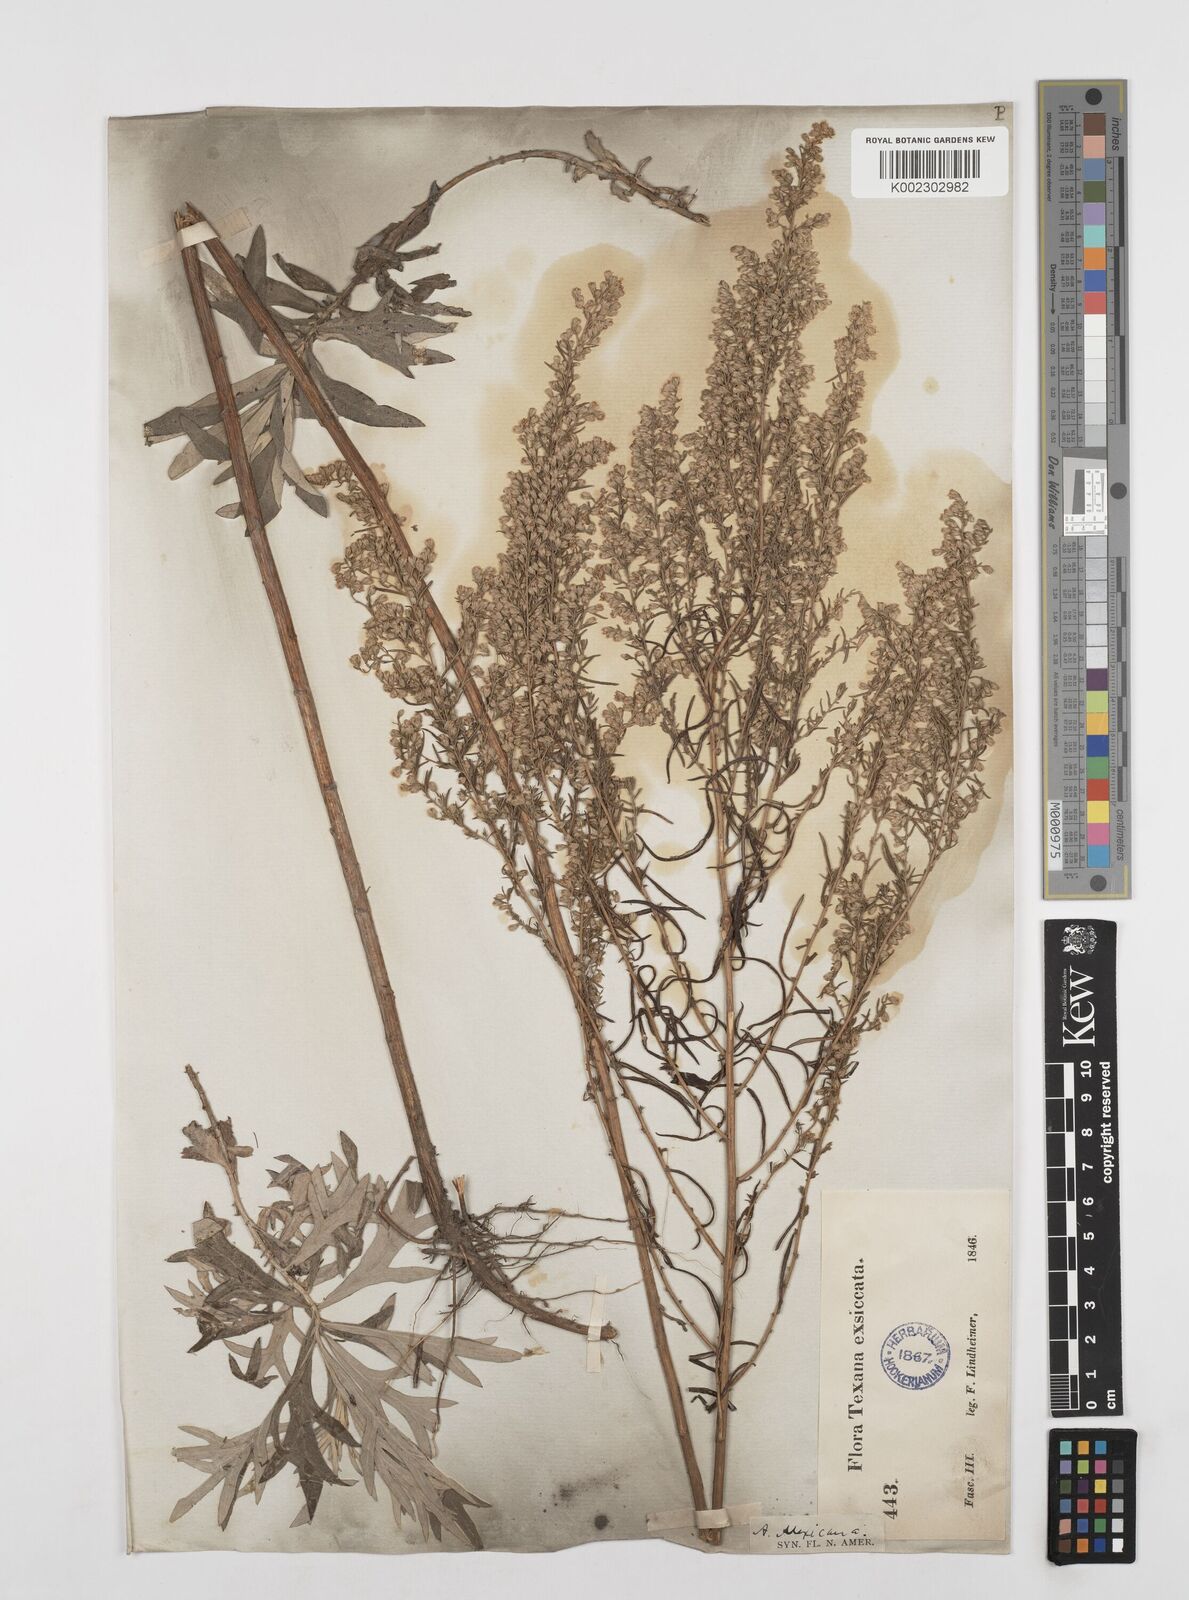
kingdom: Plantae
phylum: Tracheophyta
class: Magnoliopsida
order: Asterales
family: Asteraceae
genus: Artemisia
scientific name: Artemisia ludoviciana
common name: Western mugwort
